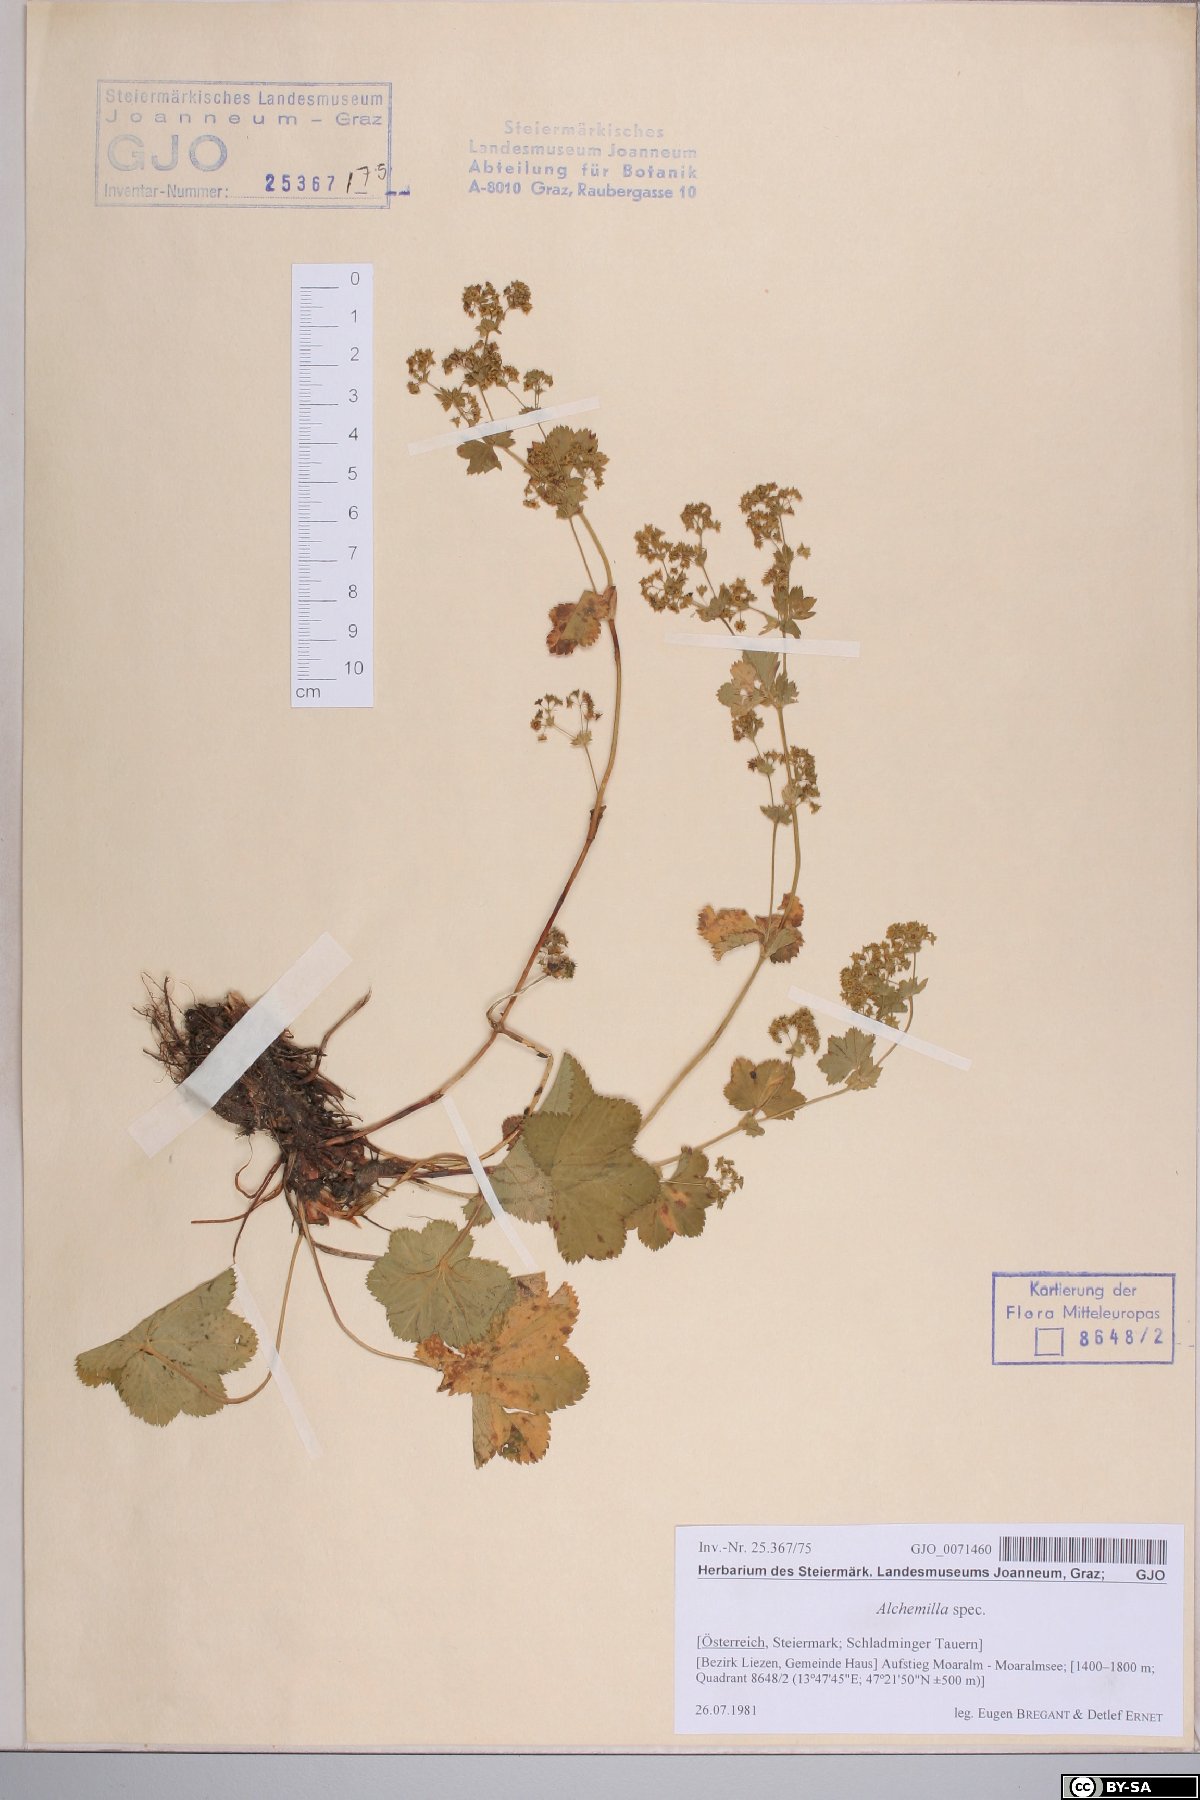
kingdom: Plantae
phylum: Tracheophyta
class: Magnoliopsida
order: Rosales
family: Rosaceae
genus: Alchemilla
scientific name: Alchemilla
